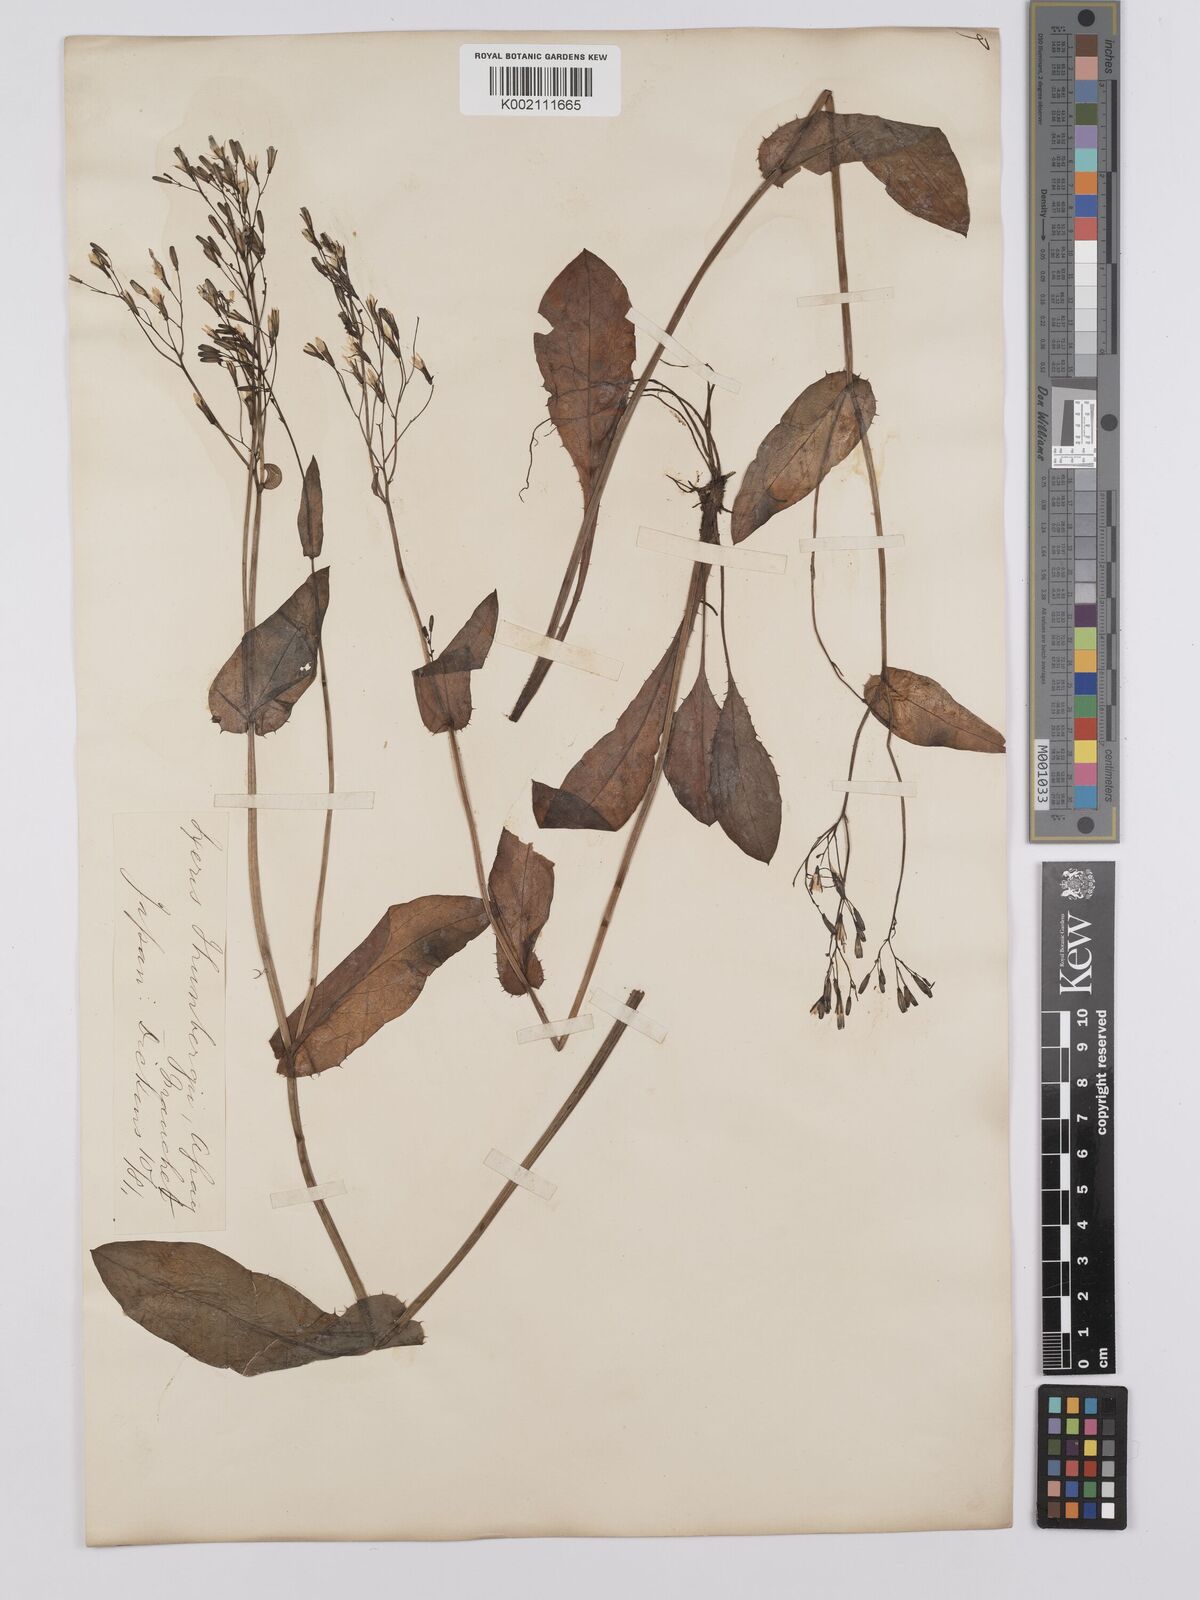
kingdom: Plantae
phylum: Tracheophyta
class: Magnoliopsida
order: Asterales
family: Asteraceae
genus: Ixeridium
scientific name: Ixeridium dentatum
